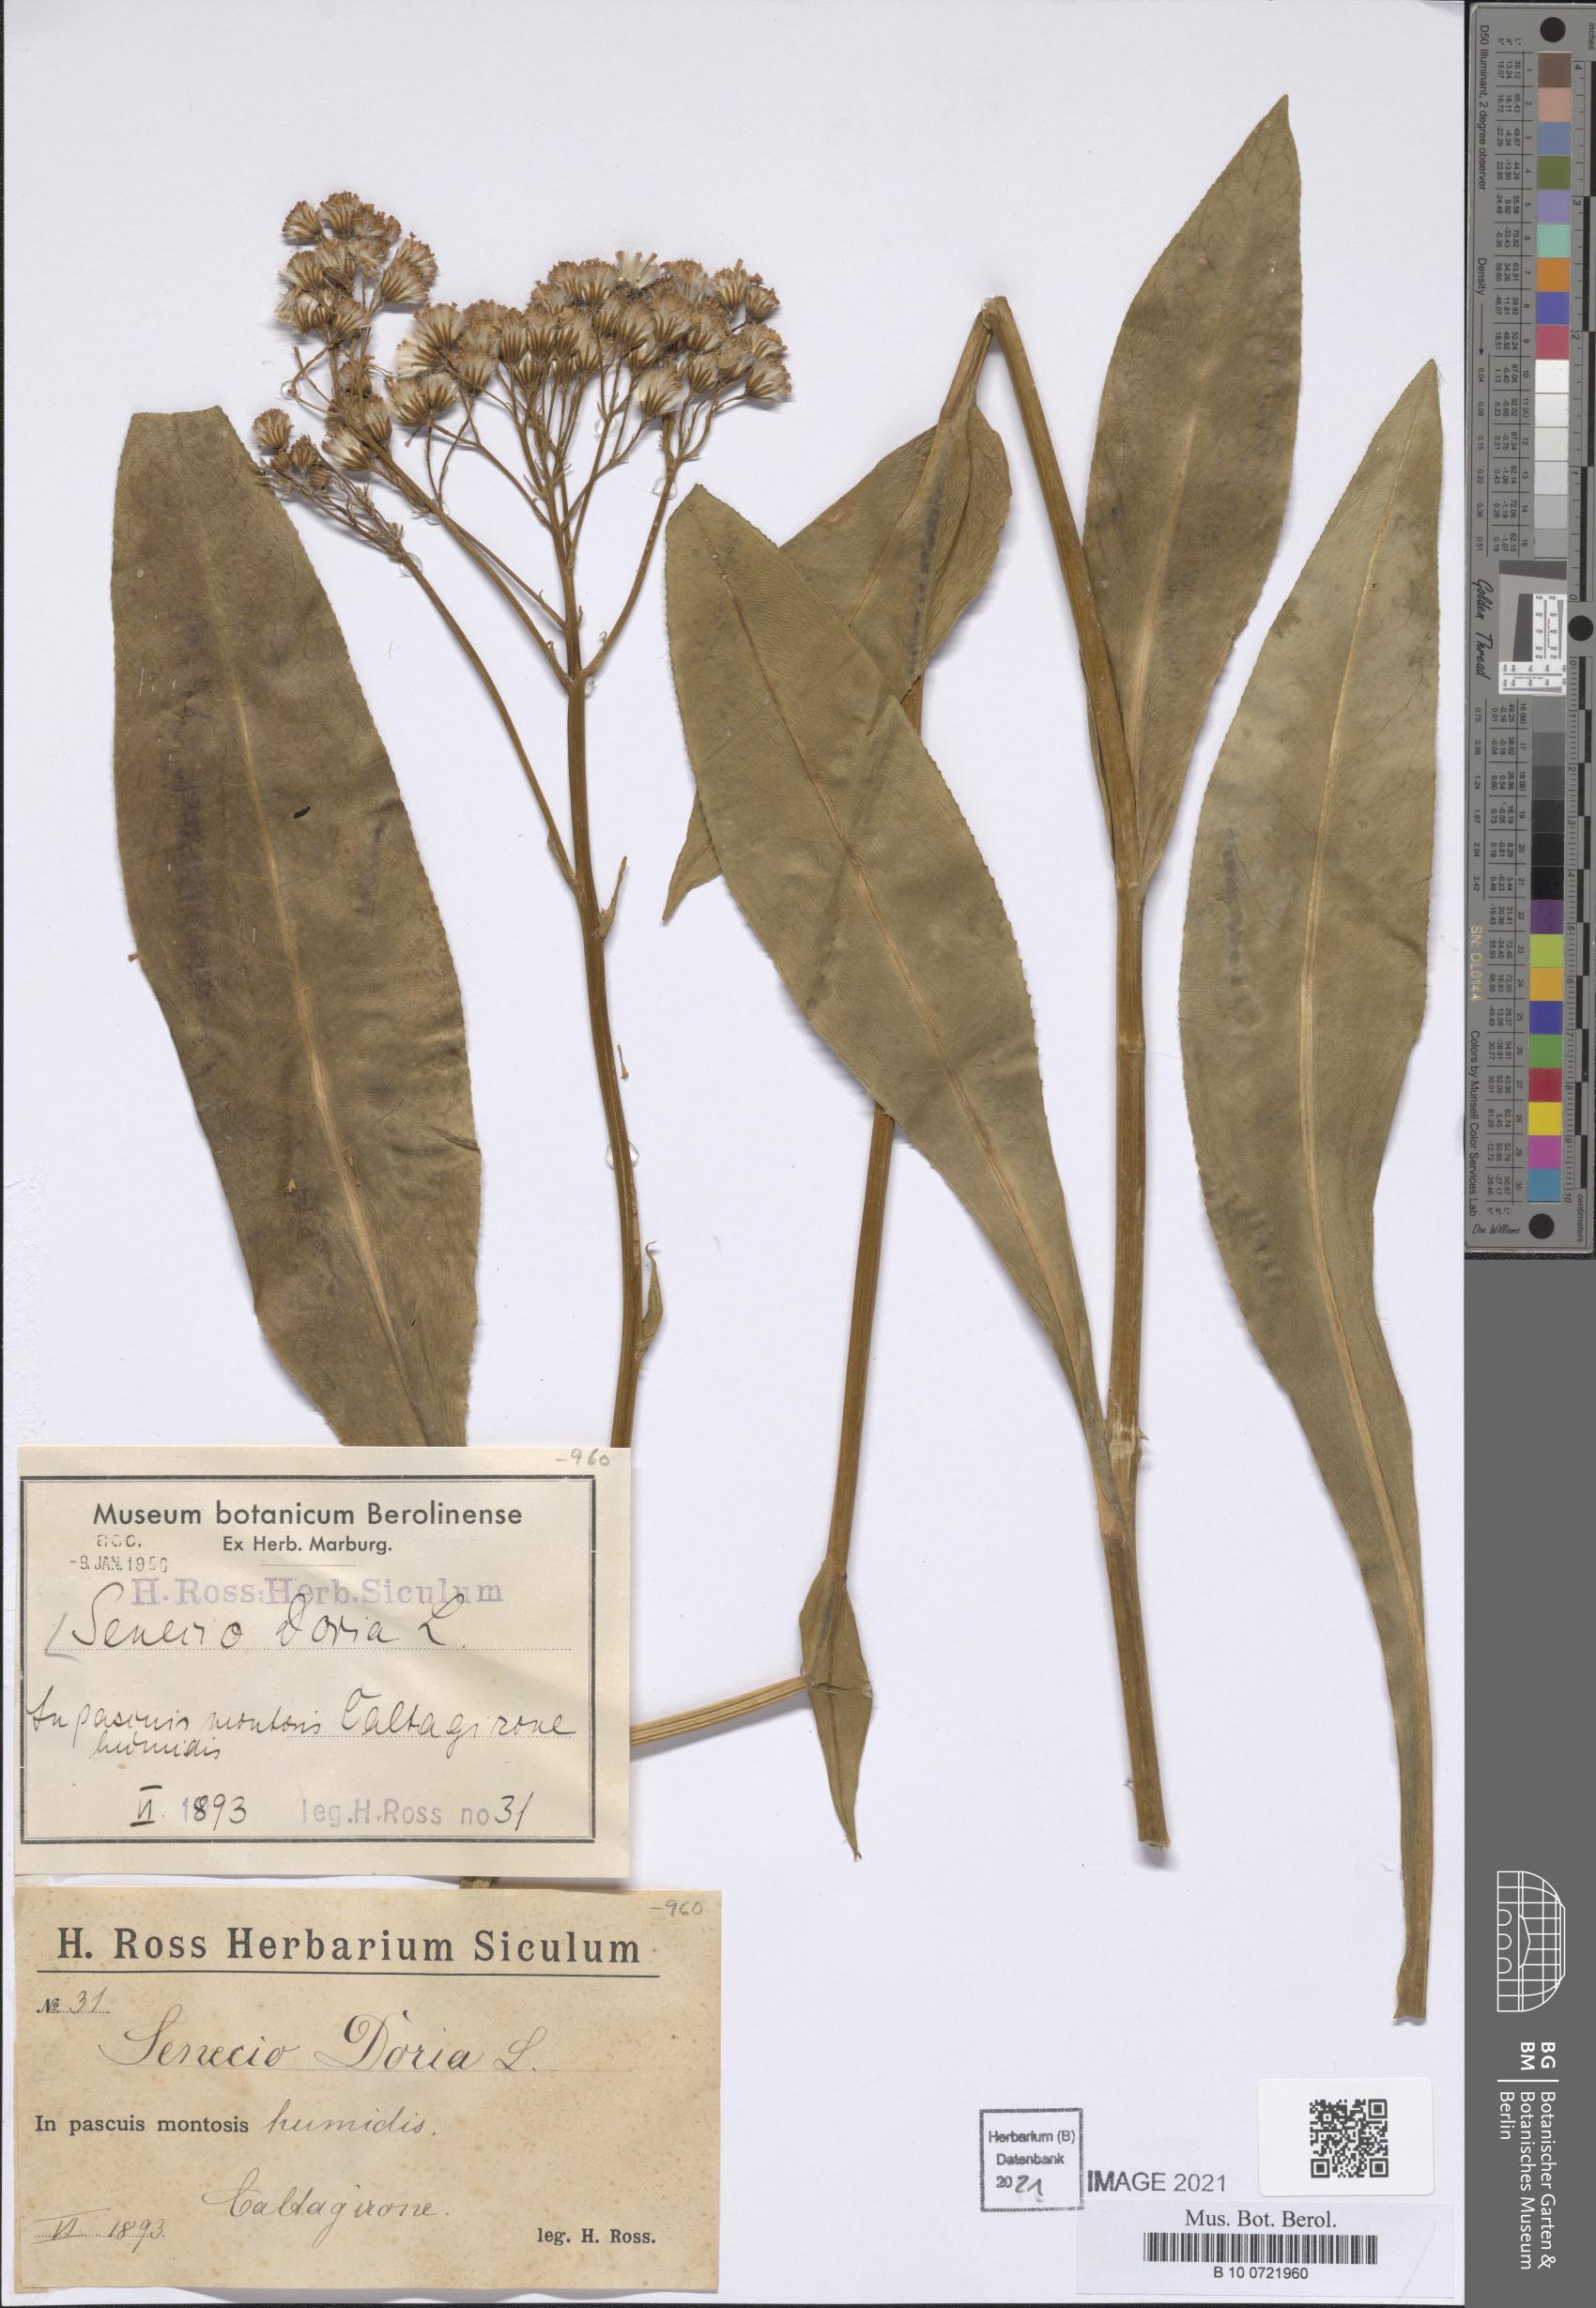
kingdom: Plantae
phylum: Tracheophyta
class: Magnoliopsida
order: Asterales
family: Asteraceae
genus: Senecio
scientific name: Senecio doria
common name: Golden ragwort
